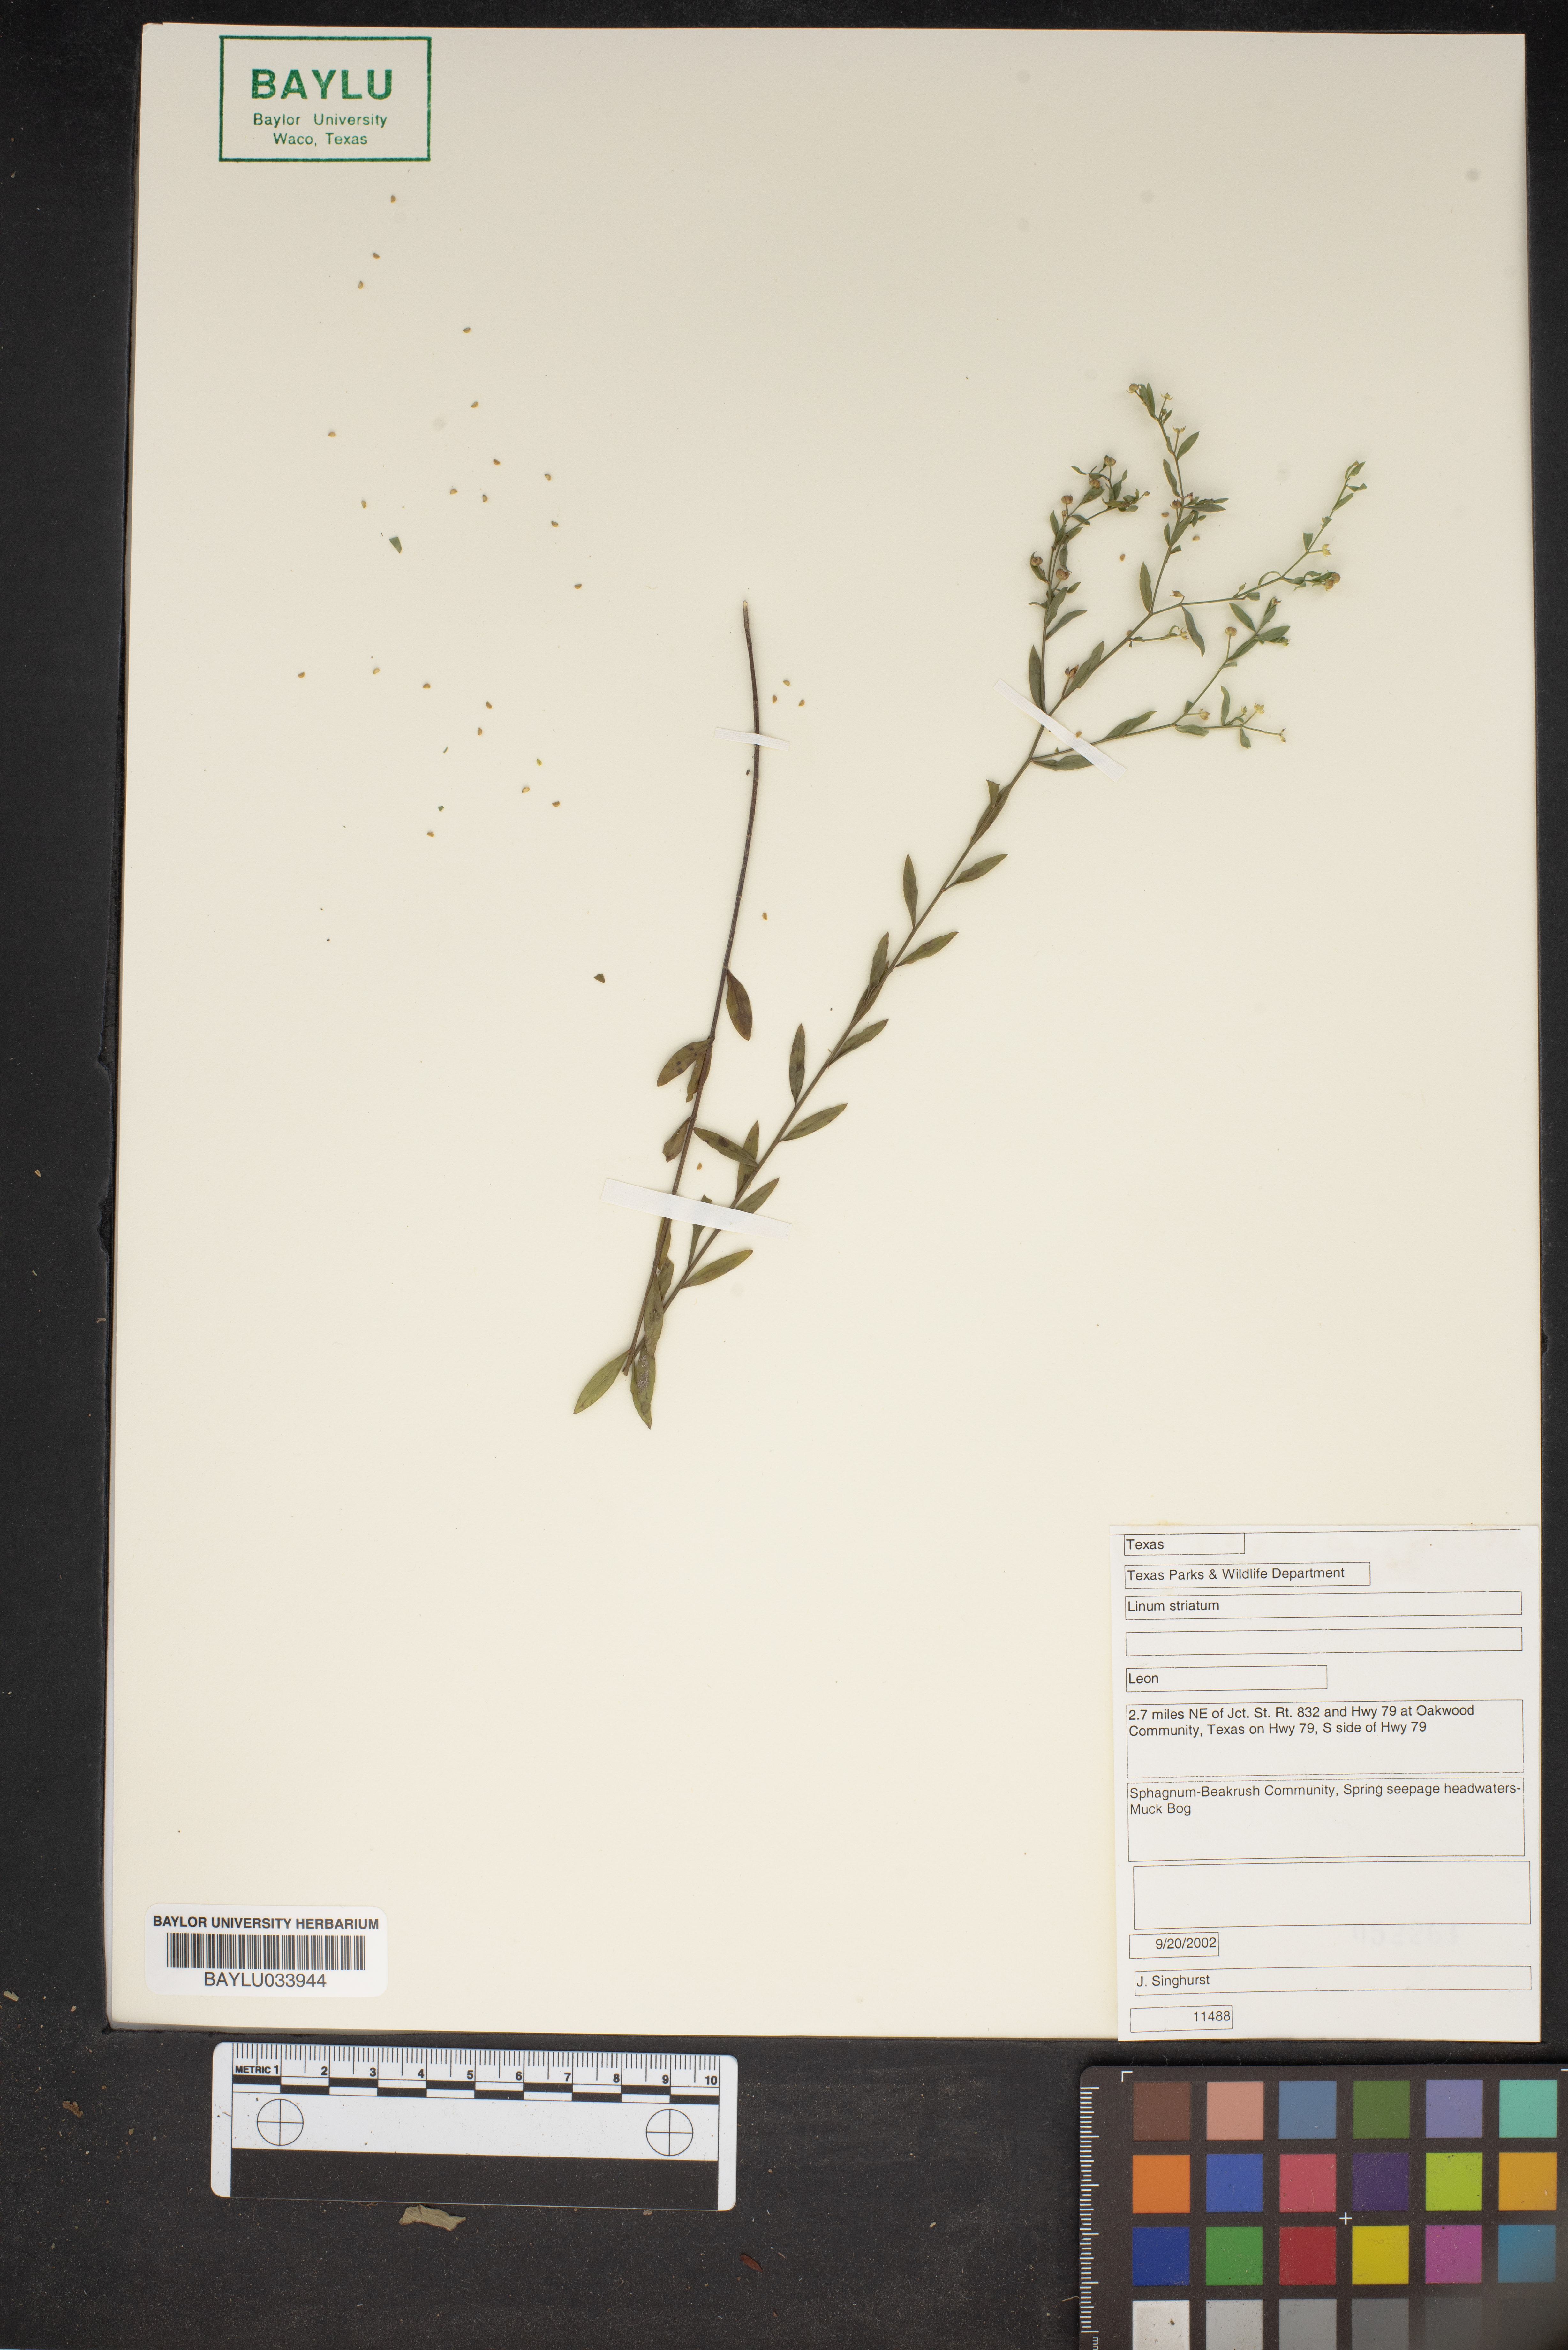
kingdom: Plantae
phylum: Tracheophyta
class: Magnoliopsida
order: Malpighiales
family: Linaceae
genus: Linum
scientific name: Linum striatum
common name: Ridged yellow flax
